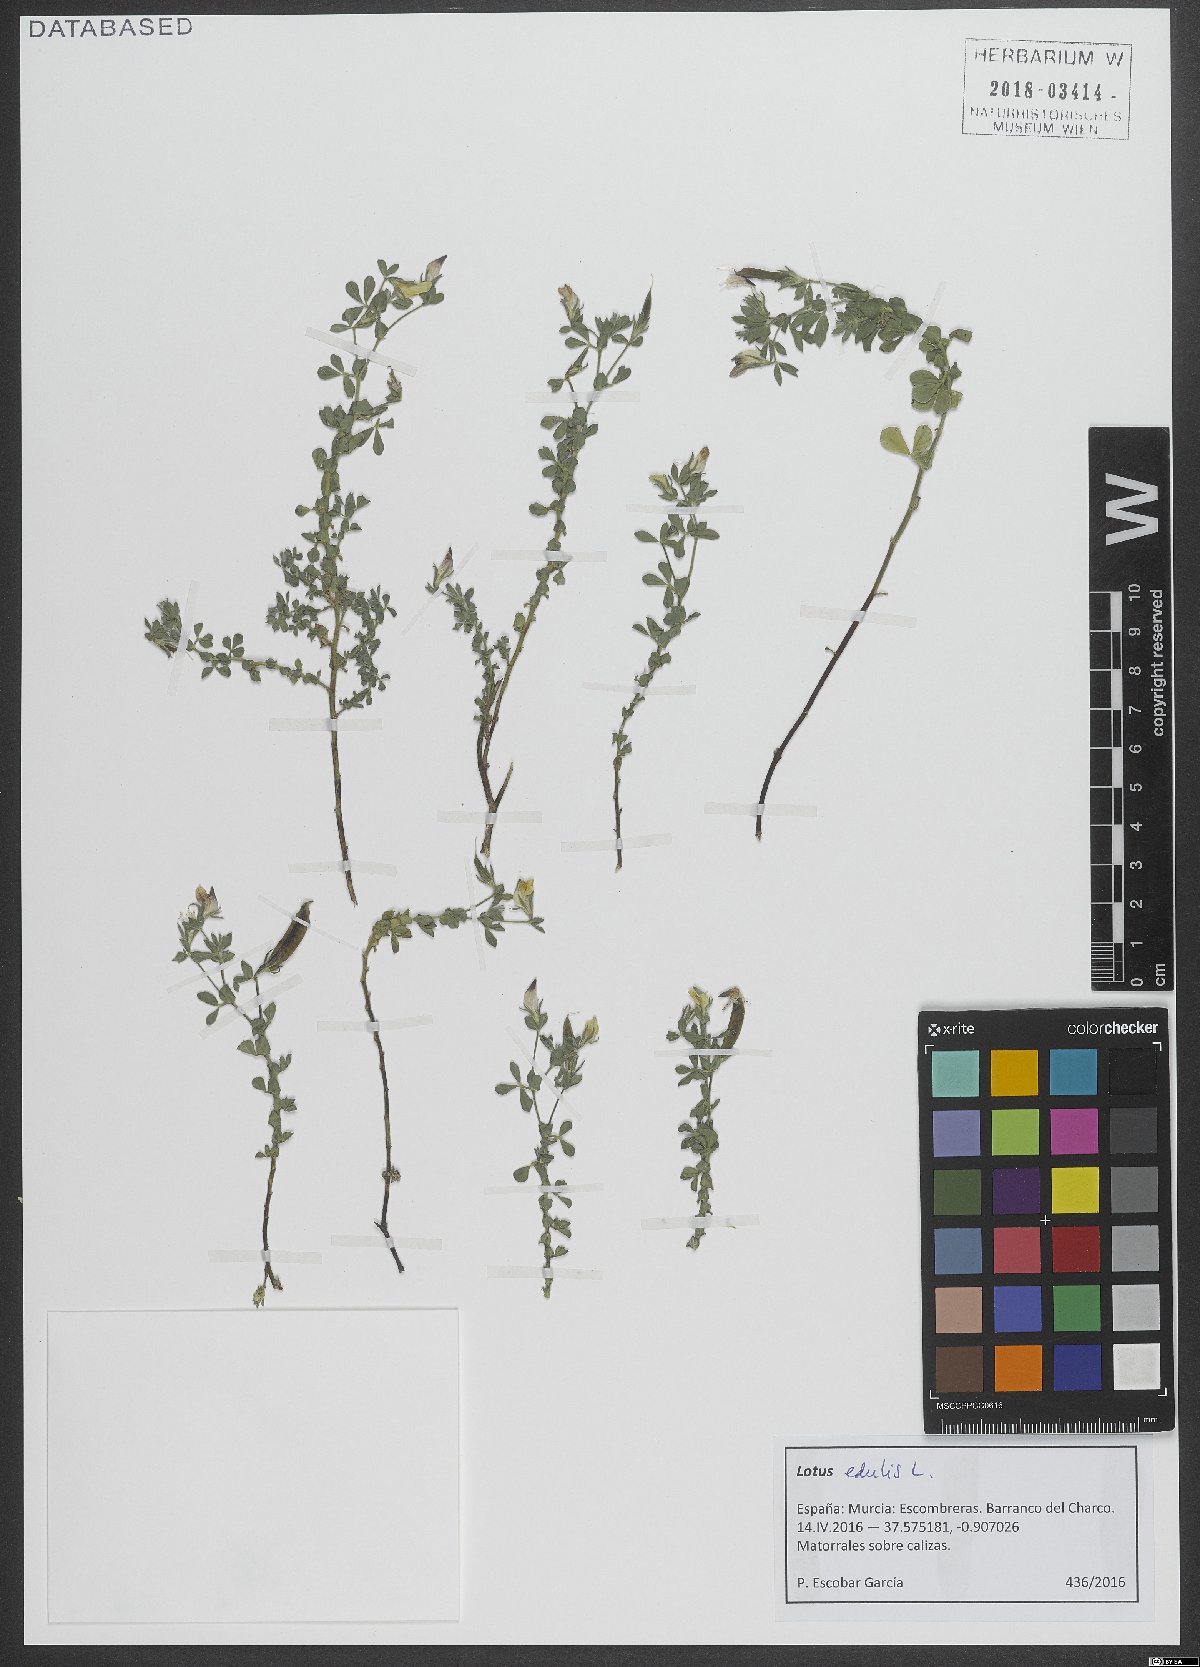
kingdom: Plantae
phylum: Tracheophyta
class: Magnoliopsida
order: Fabales
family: Fabaceae
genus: Lotus
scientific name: Lotus edulis
